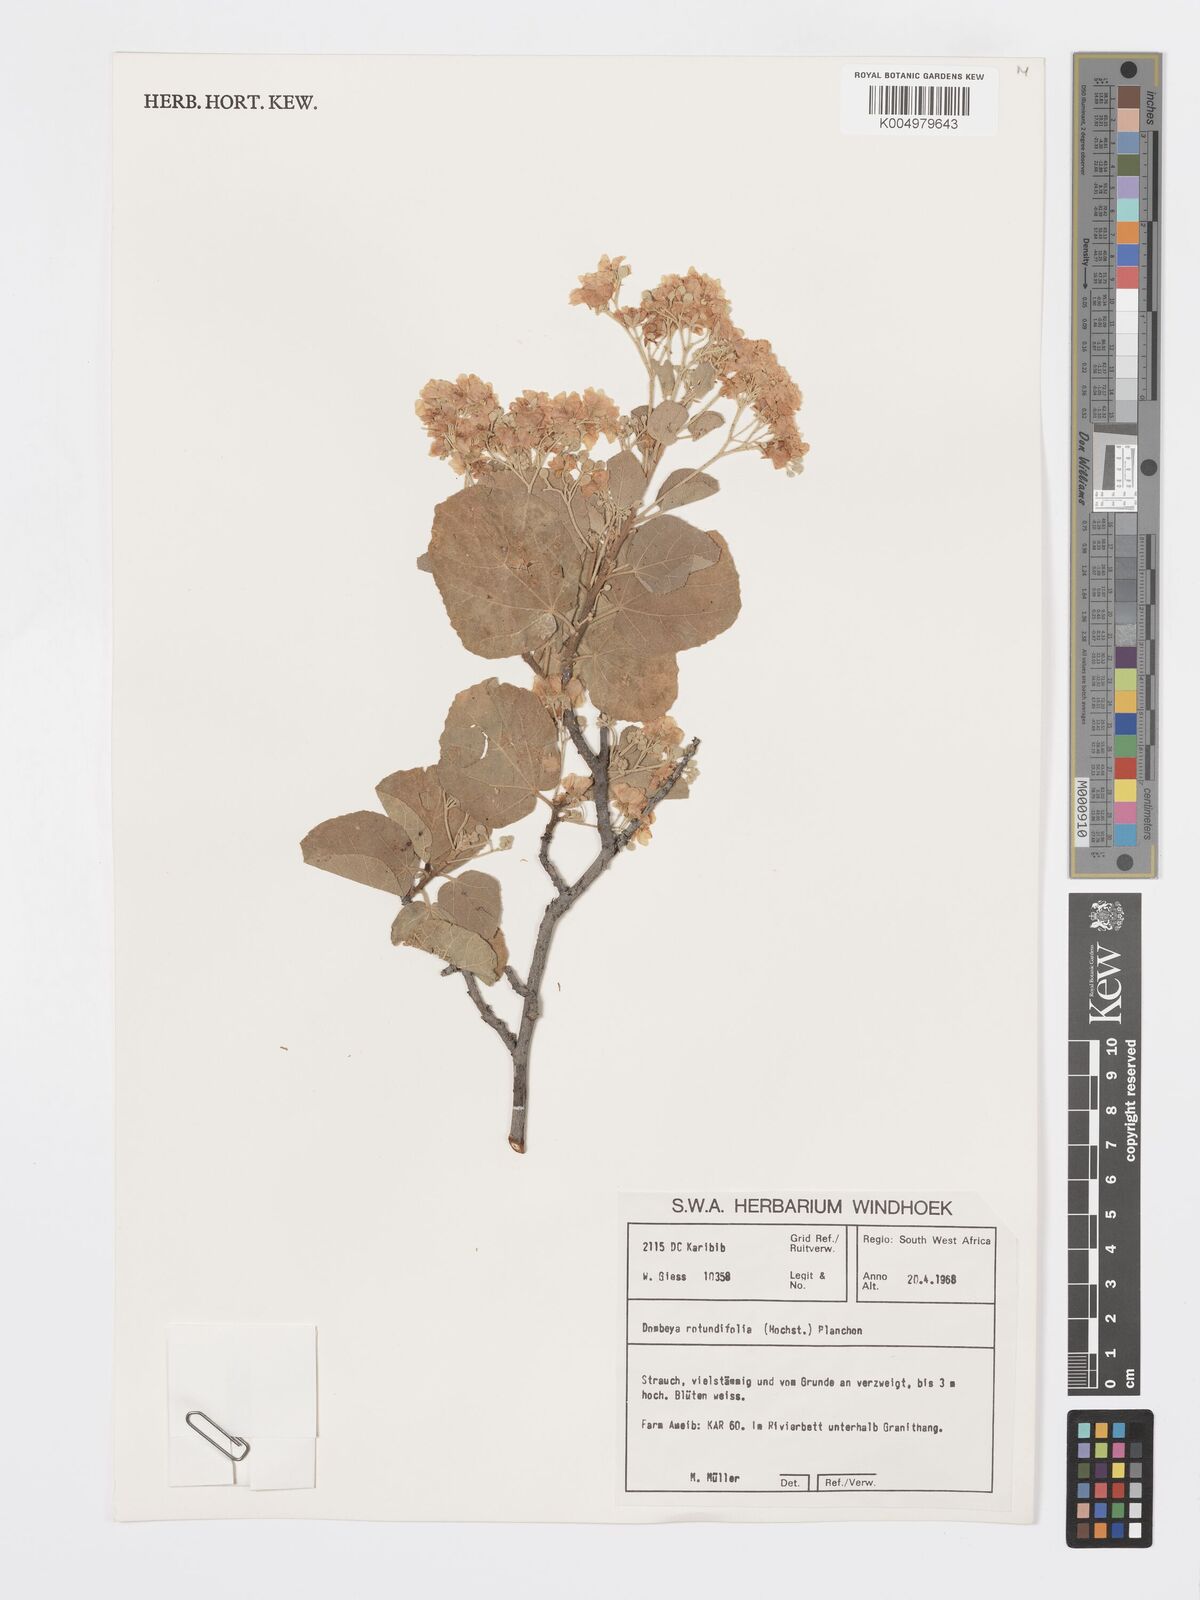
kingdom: Plantae
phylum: Tracheophyta
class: Magnoliopsida
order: Malvales
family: Malvaceae
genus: Dombeya
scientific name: Dombeya rotundifolia
